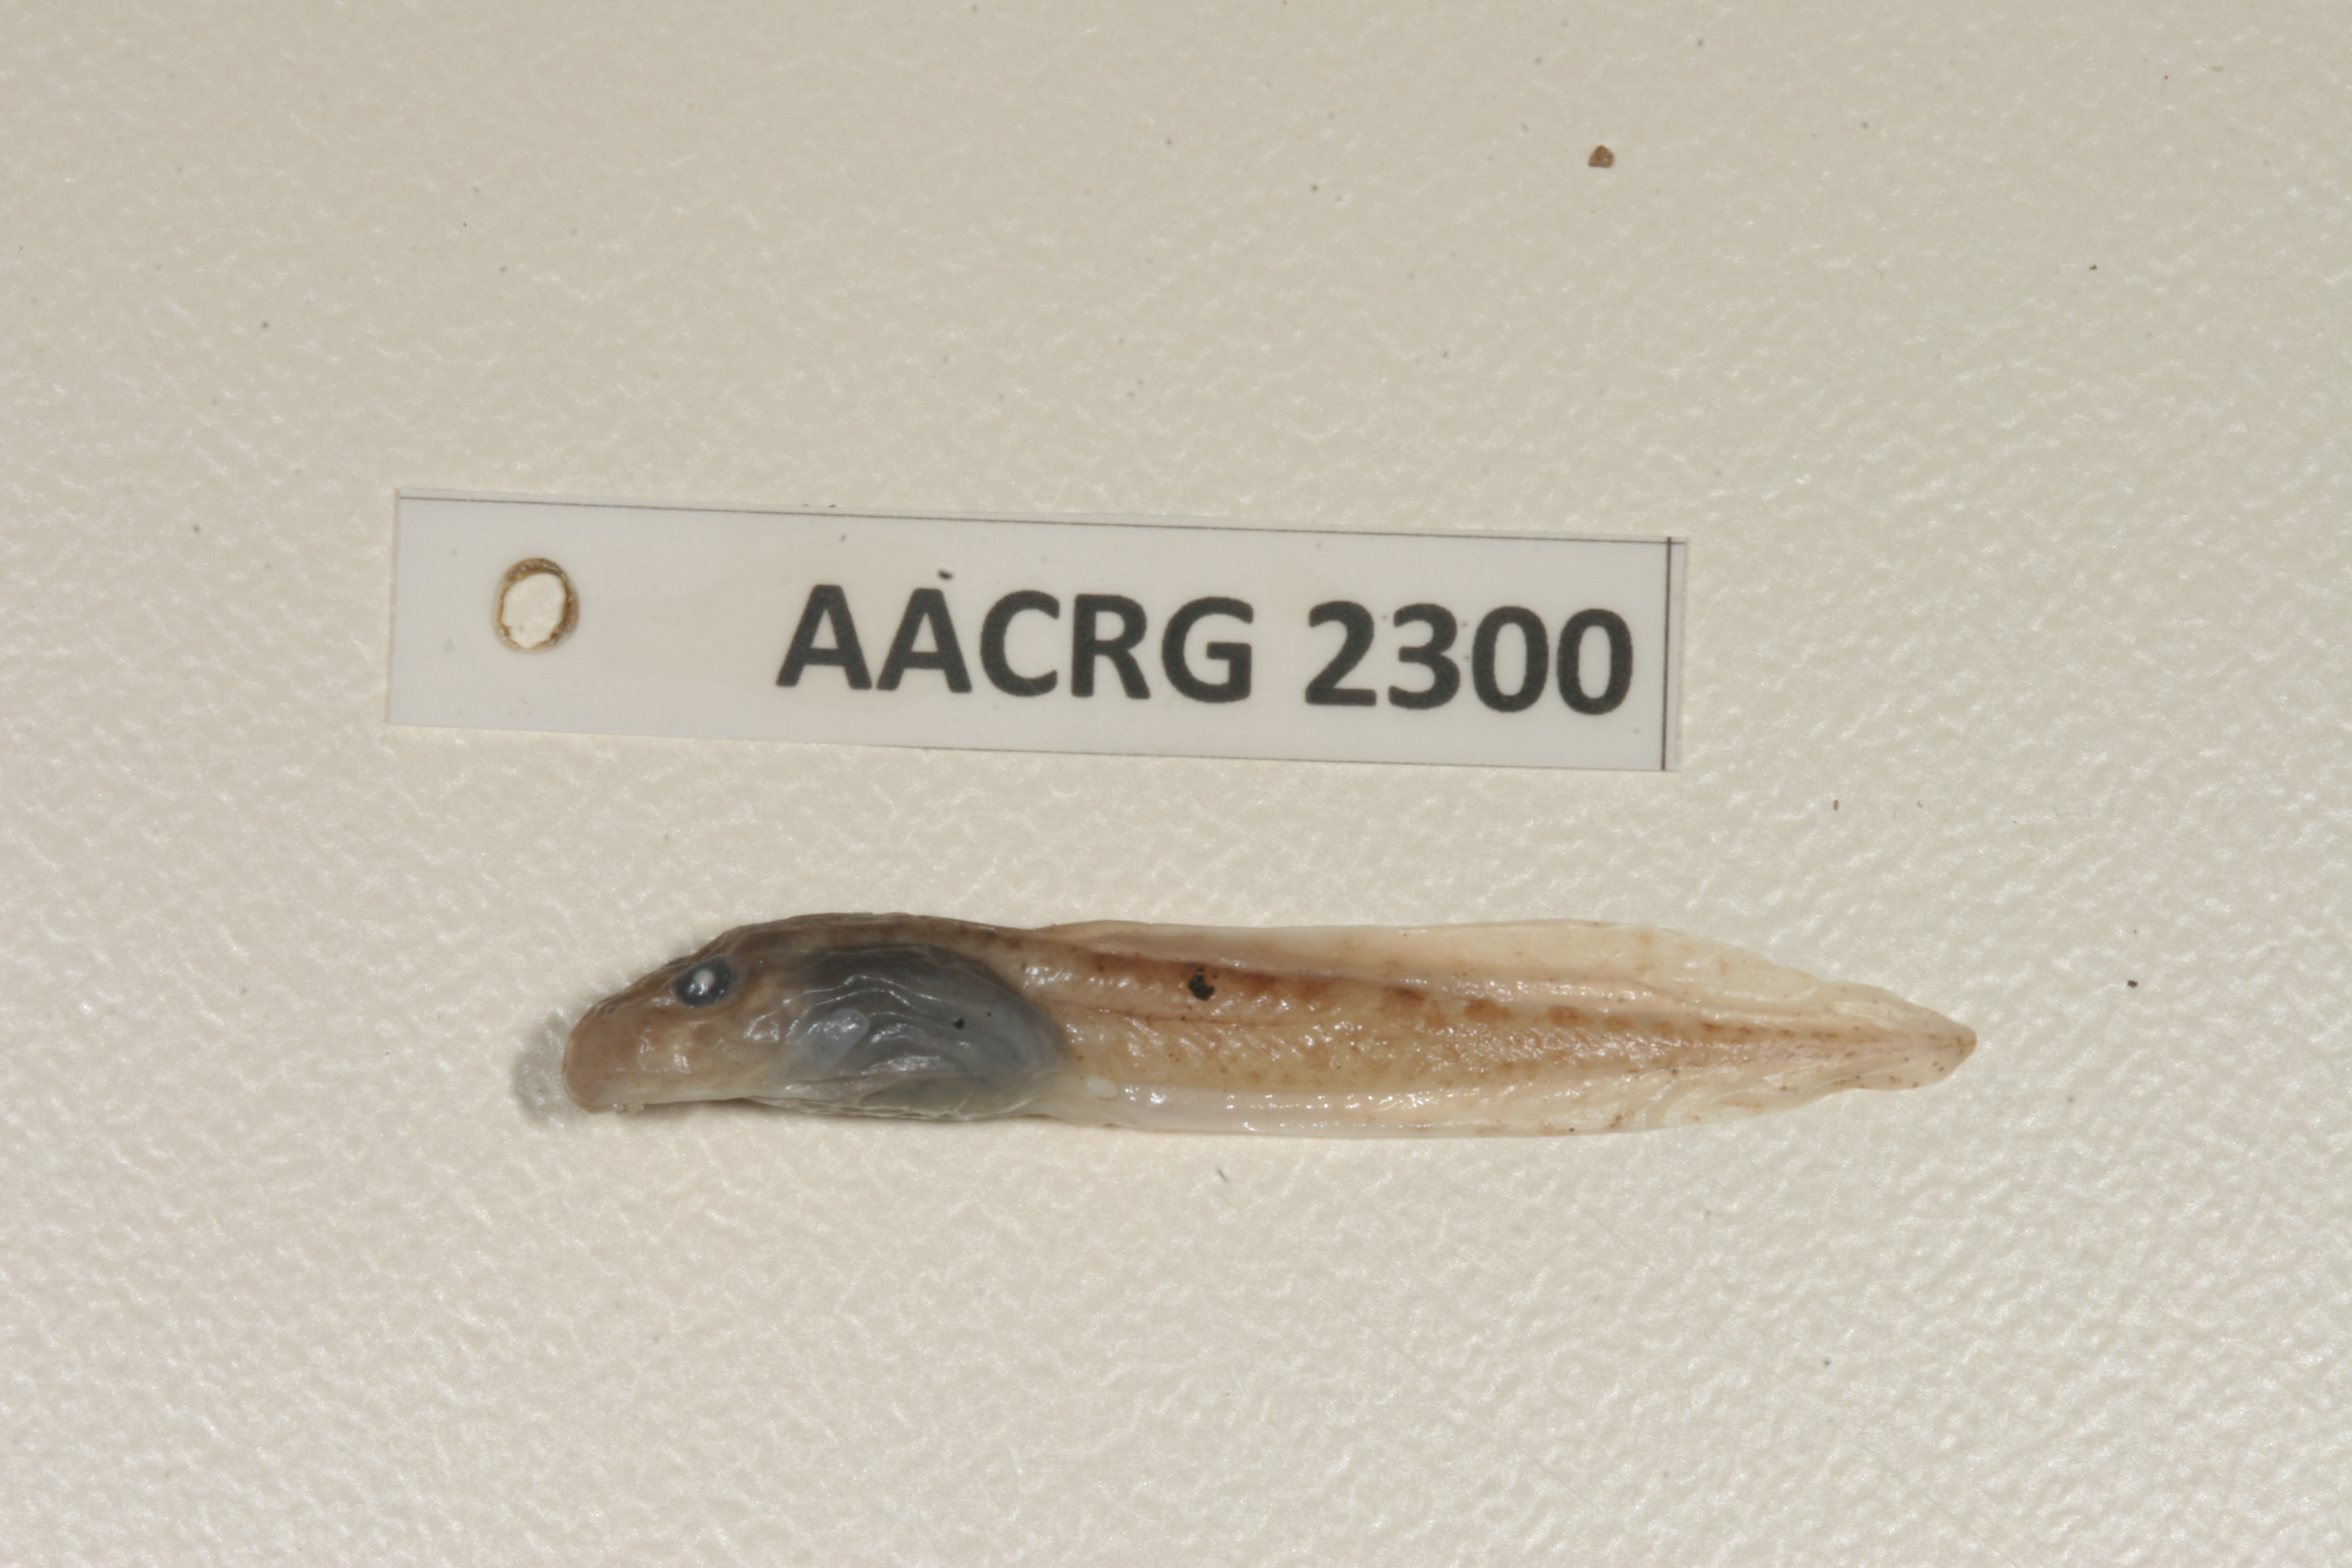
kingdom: Animalia
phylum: Chordata
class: Amphibia
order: Anura
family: Pyxicephalidae
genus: Amietia
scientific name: Amietia fuscigula
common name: Cape rana
